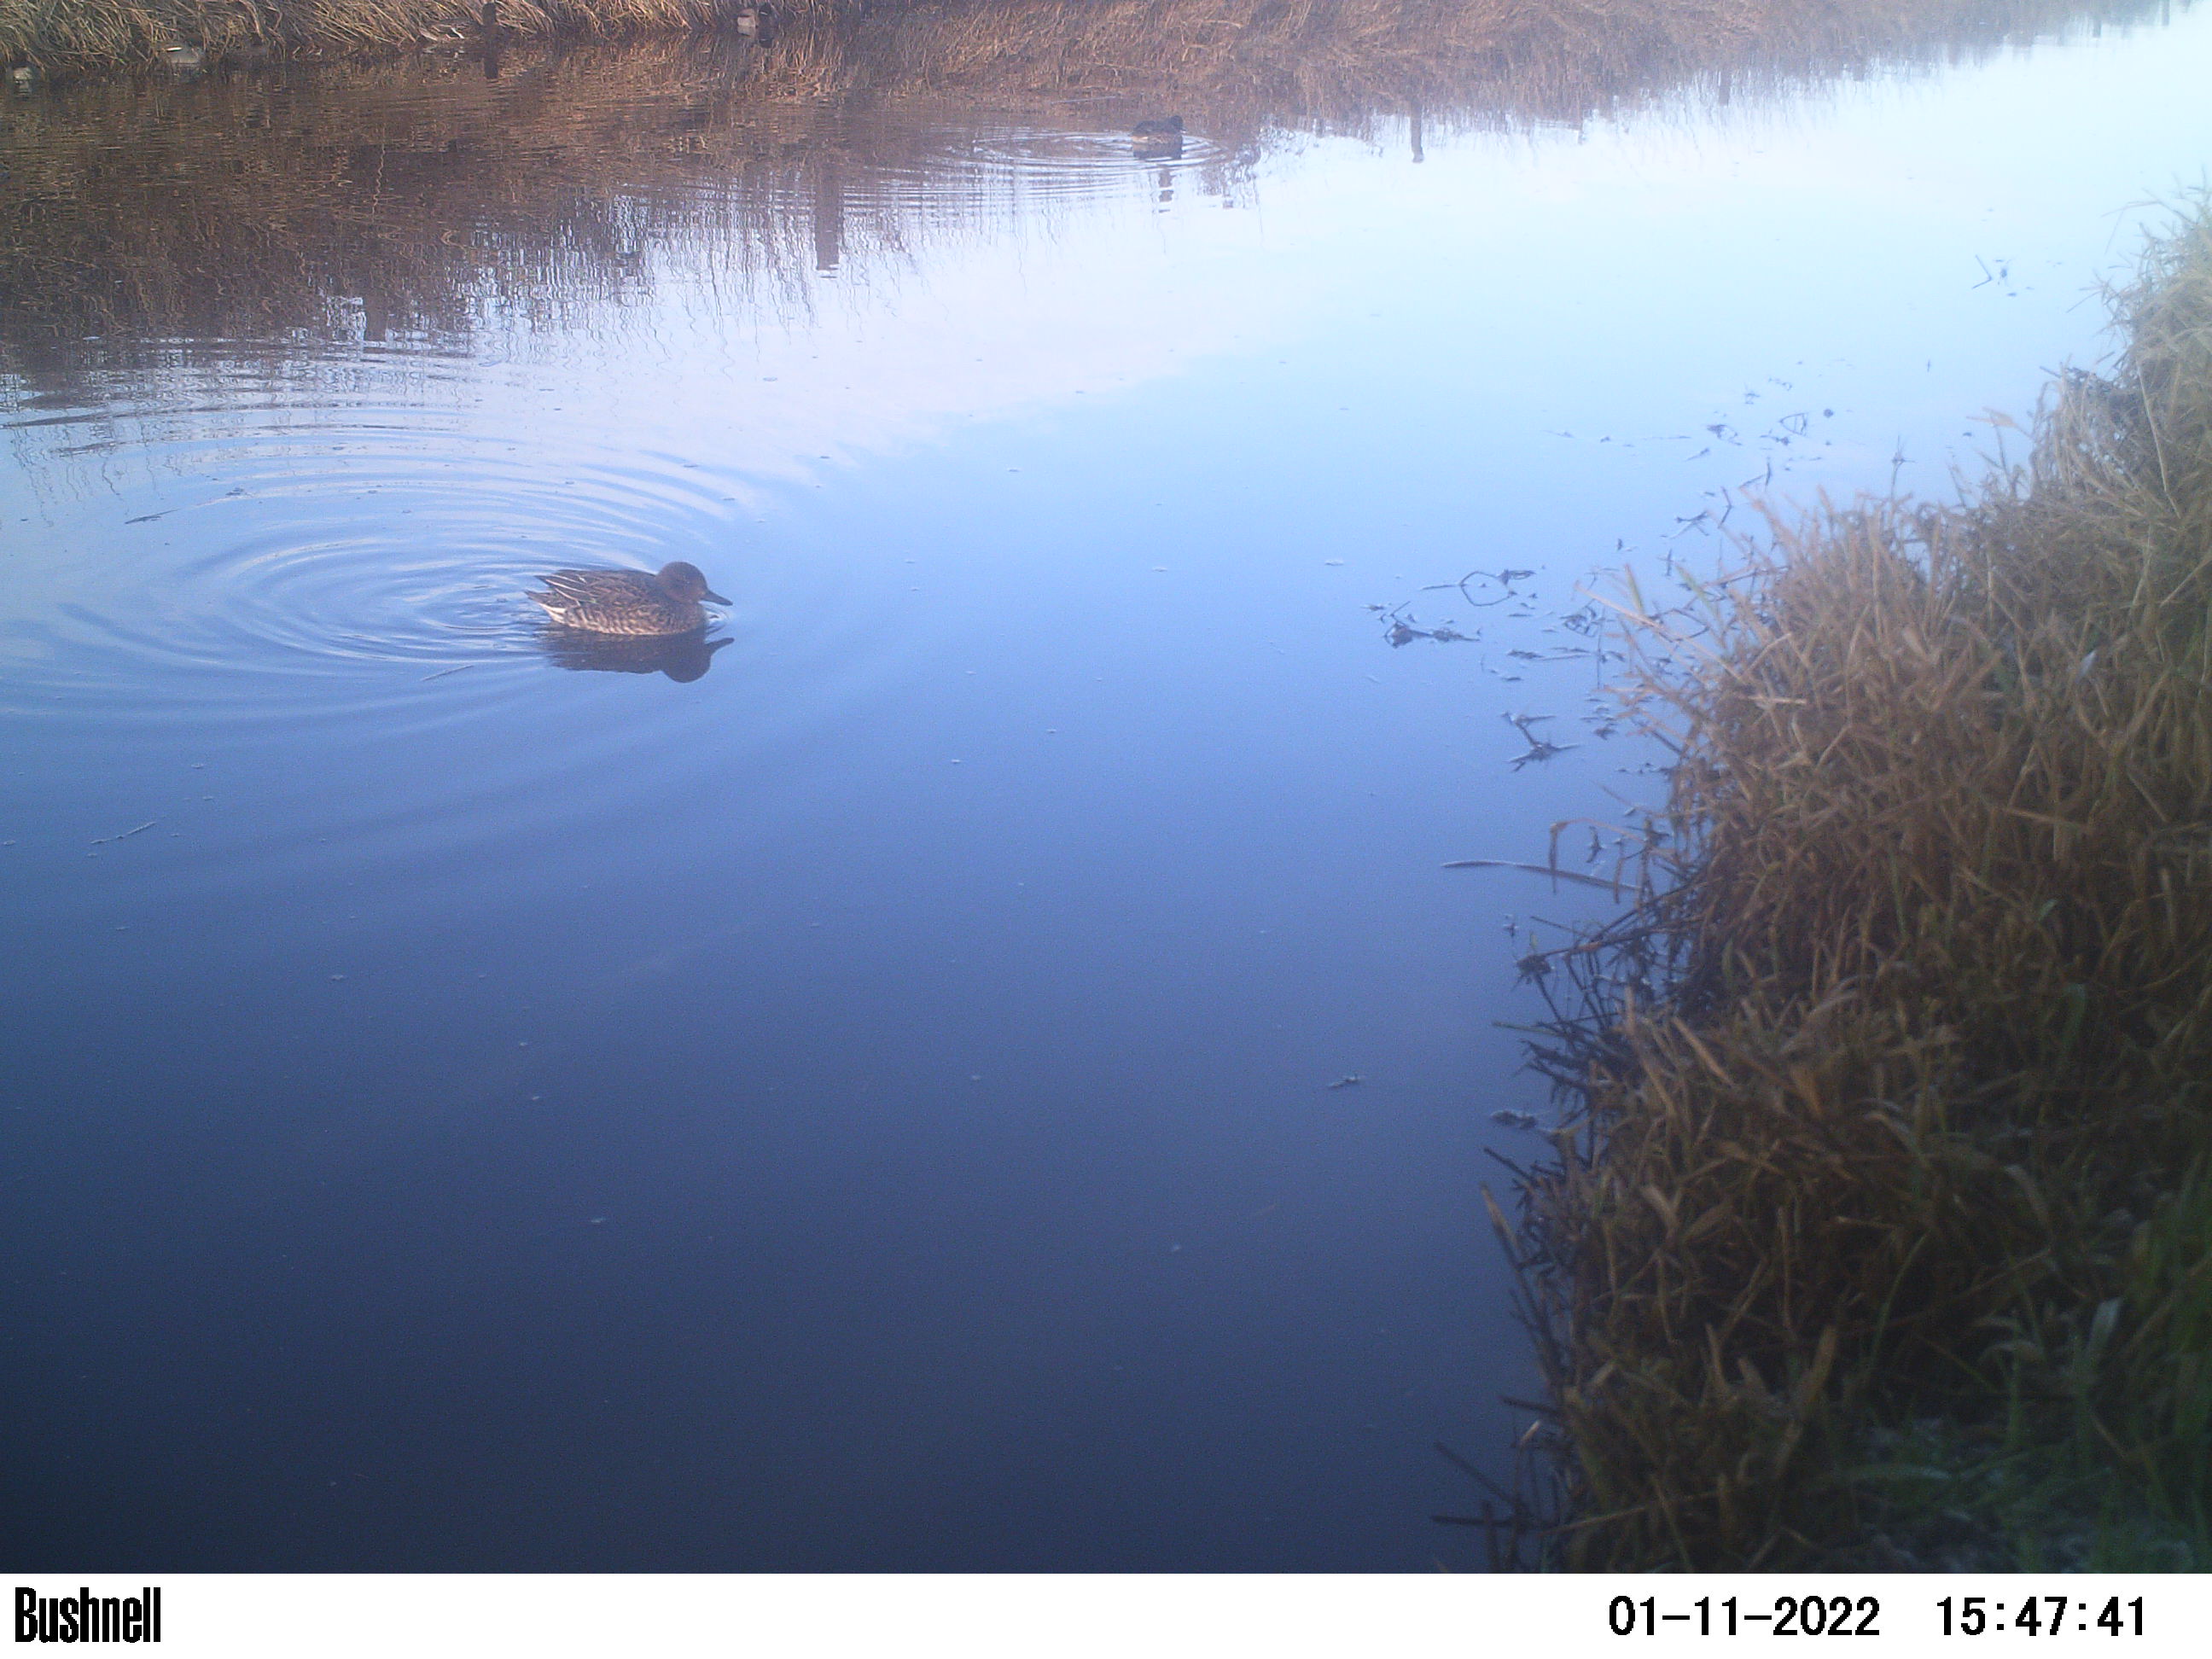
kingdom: Animalia
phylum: Chordata
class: Aves
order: Anseriformes
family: Anatidae
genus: Anas
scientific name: Anas
